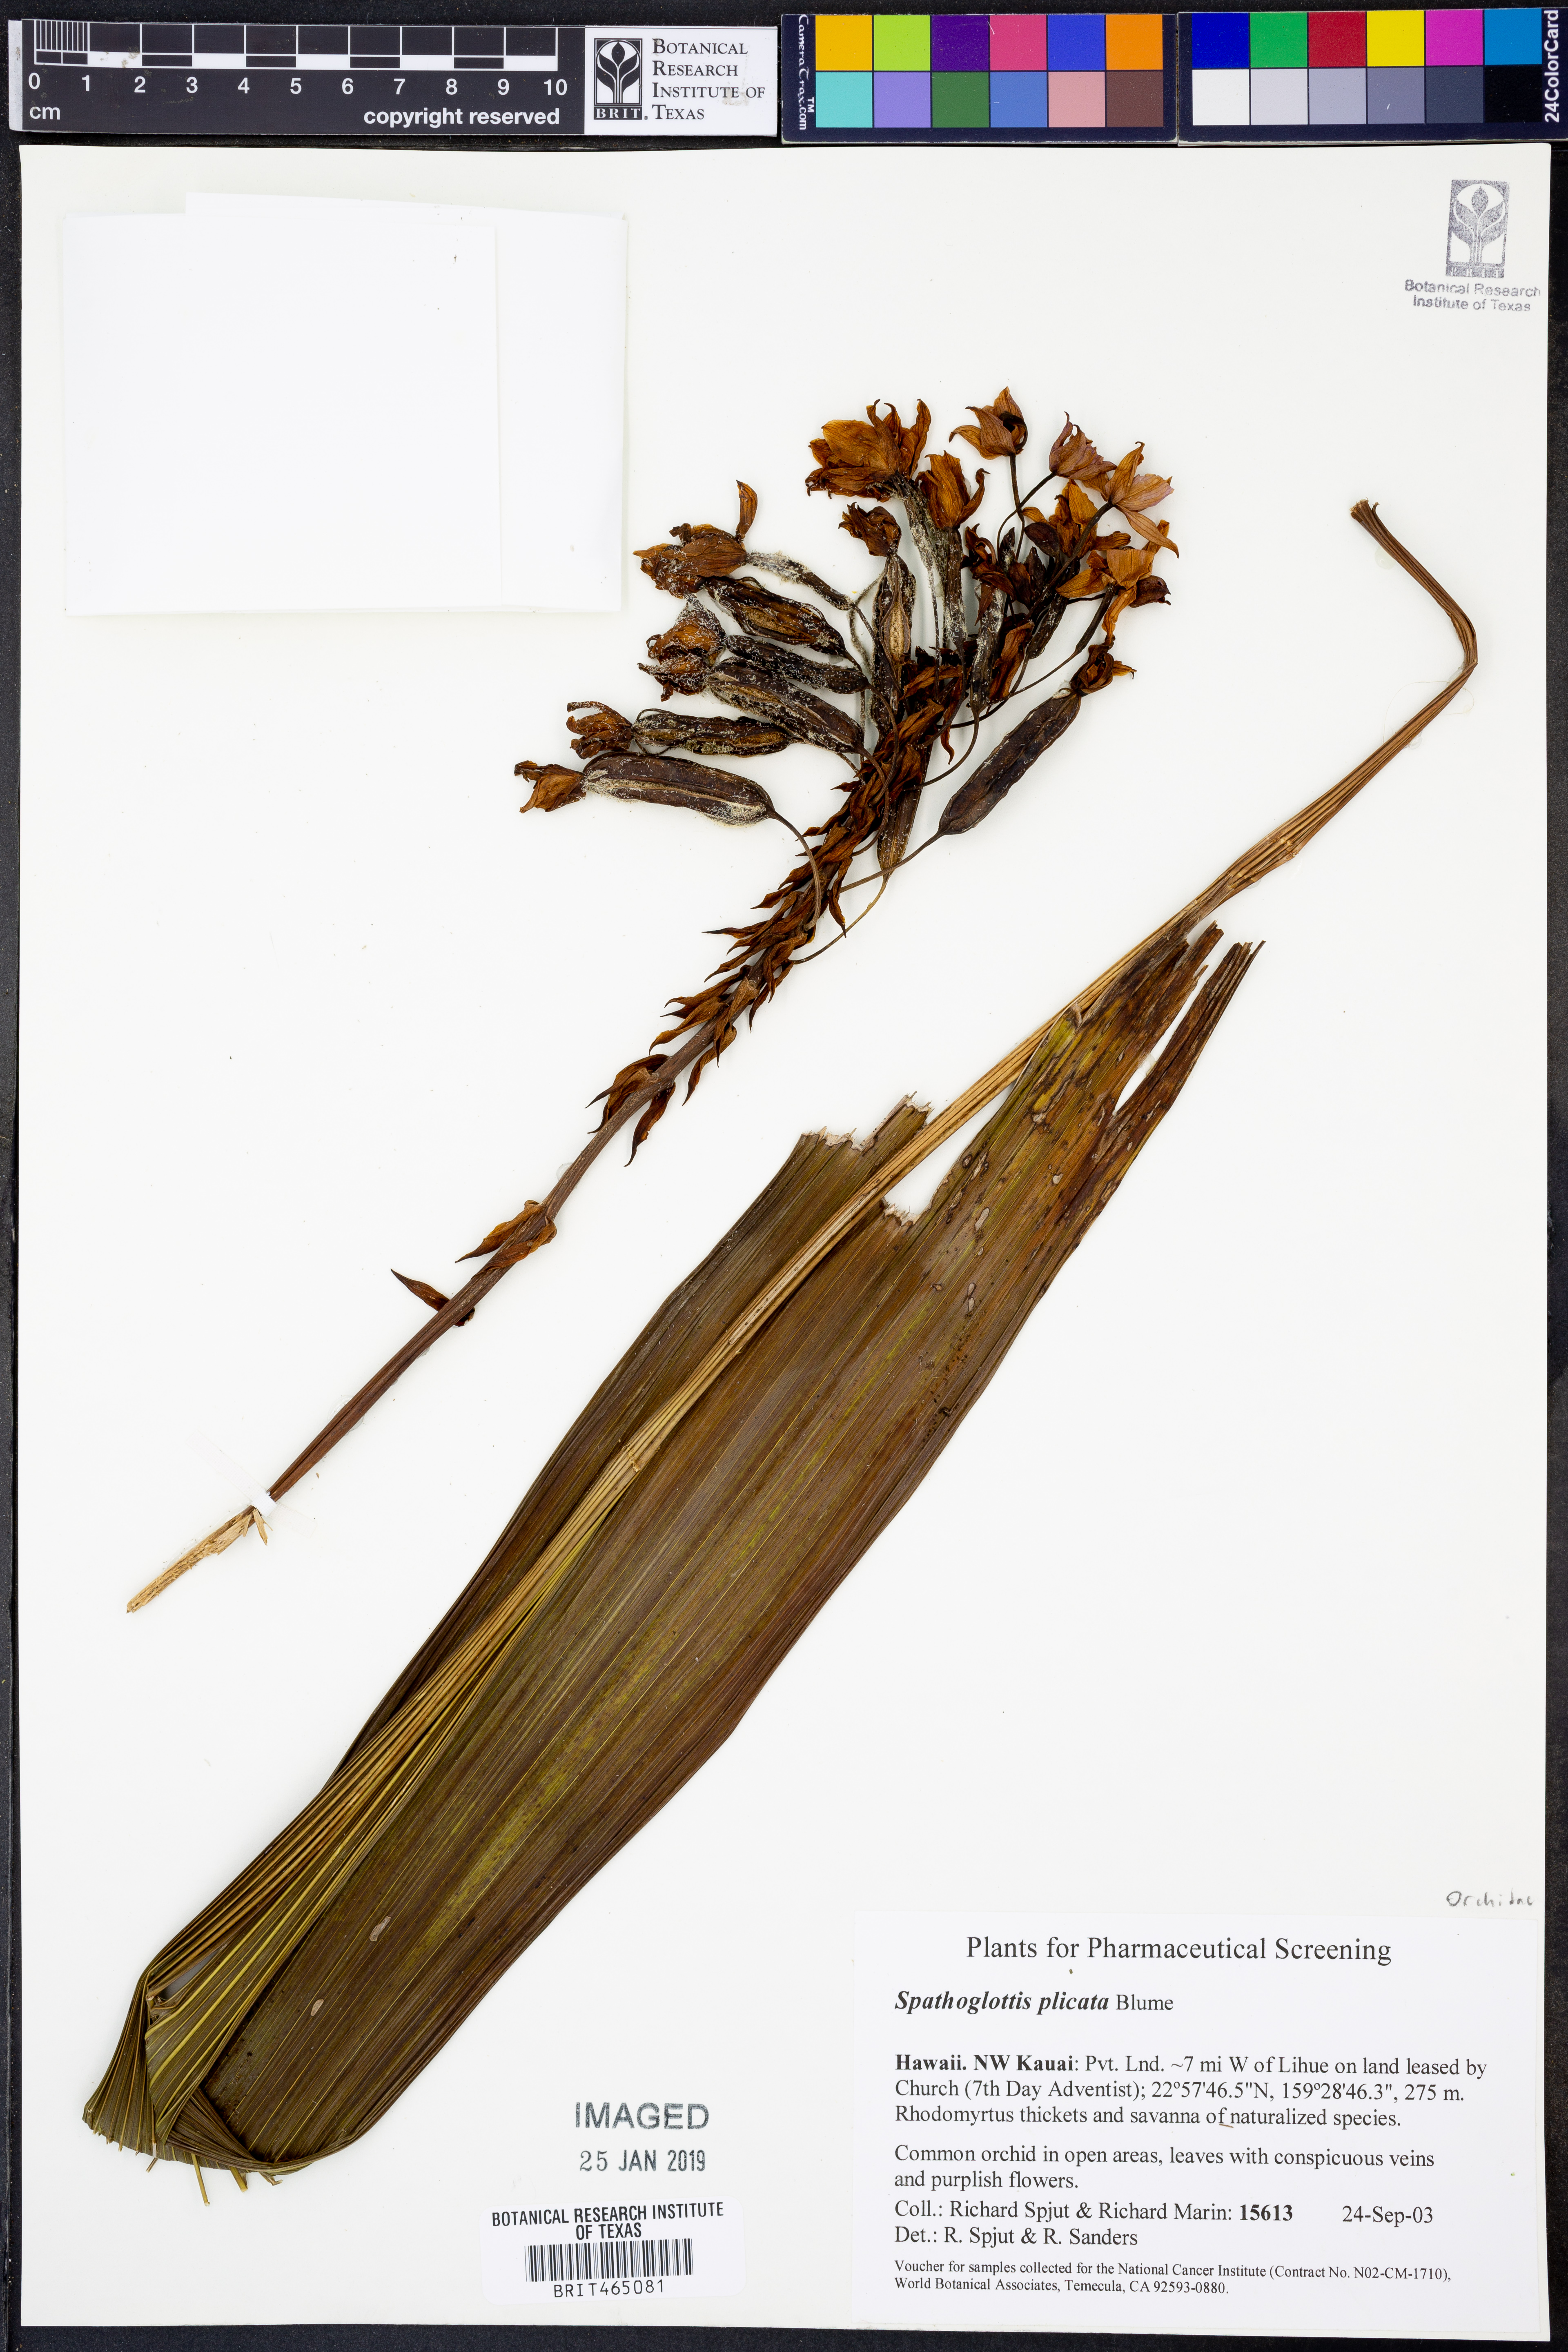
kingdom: Plantae
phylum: Tracheophyta
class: Liliopsida
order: Asparagales
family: Orchidaceae
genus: Spathoglottis
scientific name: Spathoglottis plicata
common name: Philippine ground orchid
